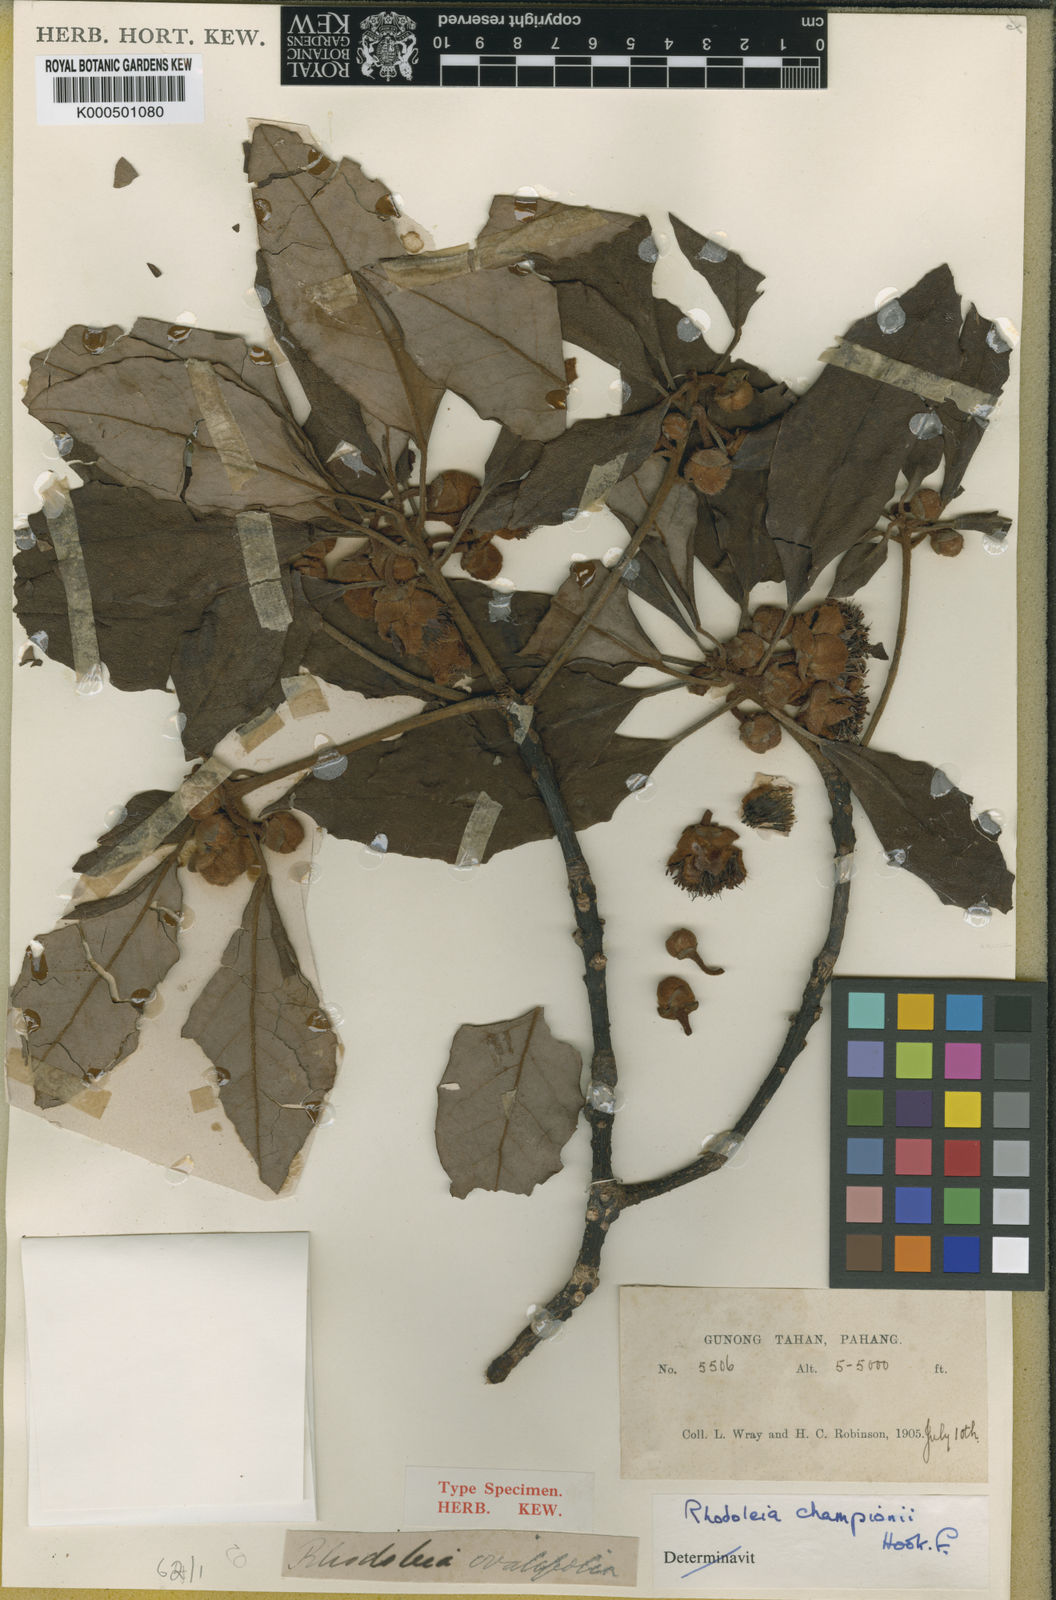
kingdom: Plantae
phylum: Tracheophyta
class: Magnoliopsida
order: Saxifragales
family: Hamamelidaceae
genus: Rhodoleia
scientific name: Rhodoleia championii
